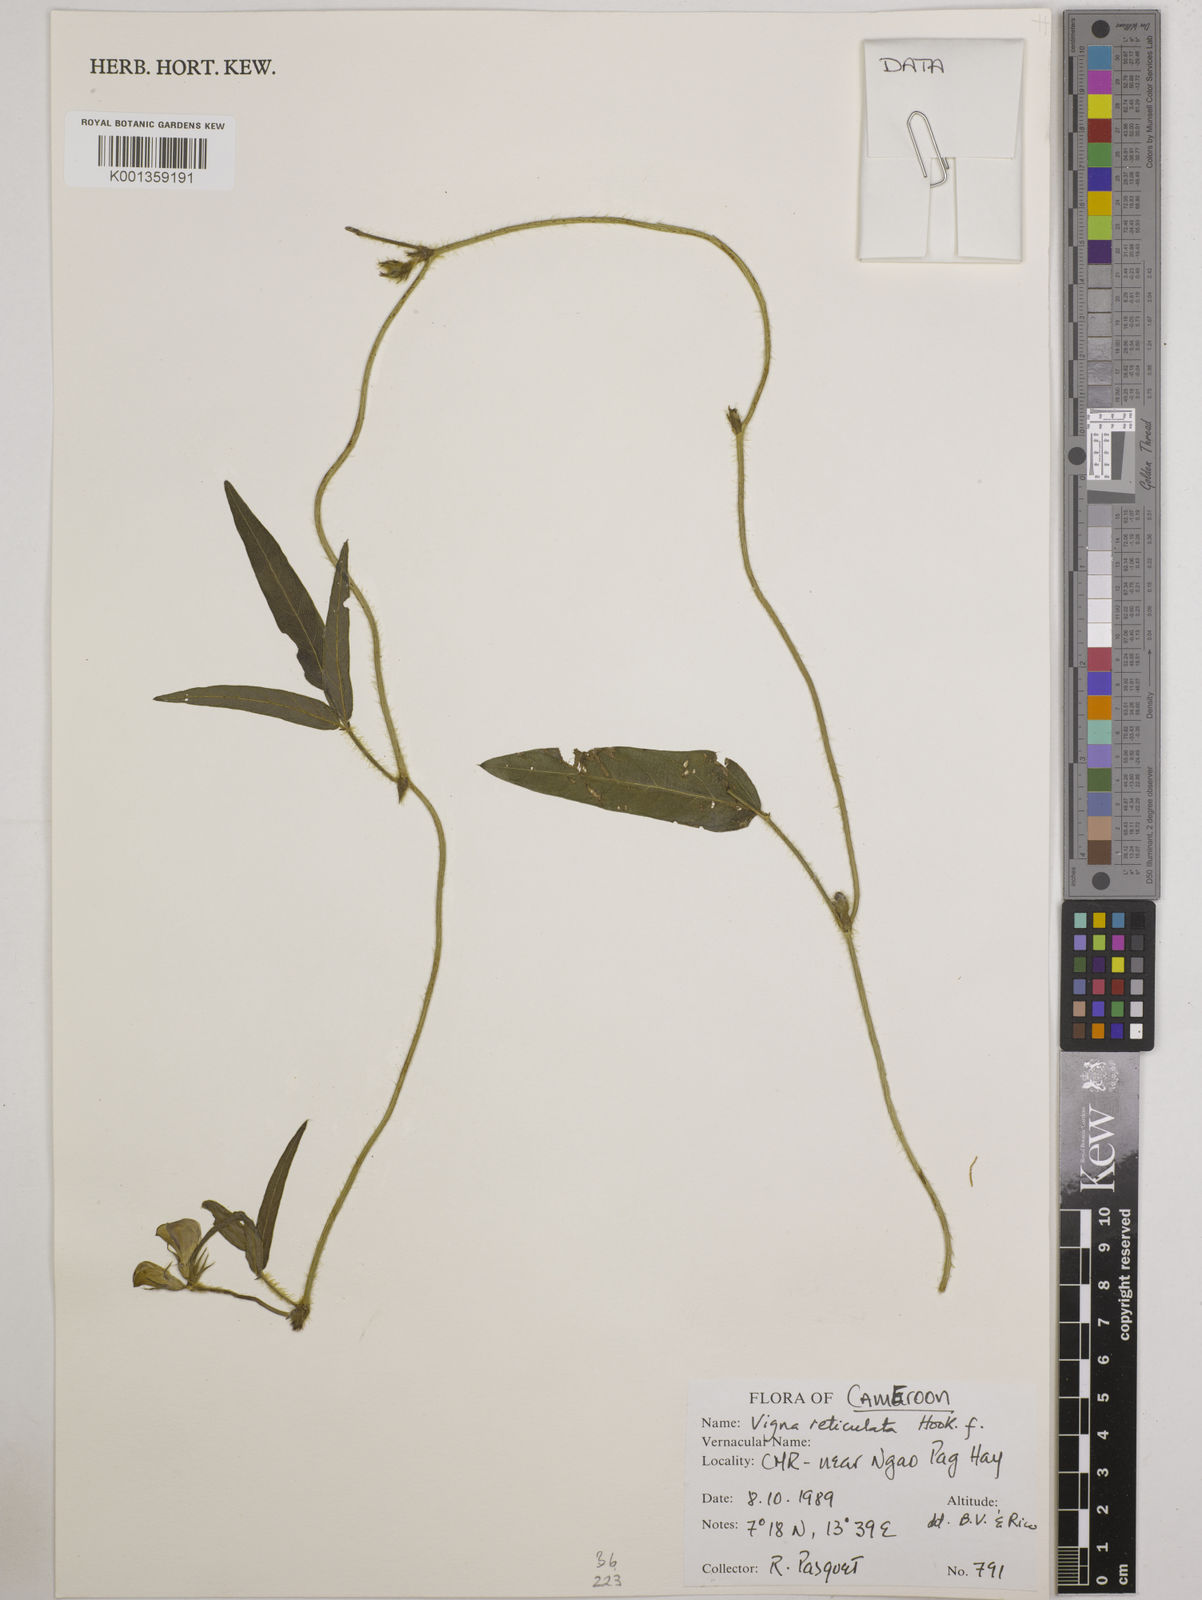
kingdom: Plantae
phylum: Tracheophyta
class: Magnoliopsida
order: Fabales
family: Fabaceae
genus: Vigna
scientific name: Vigna reticulata
